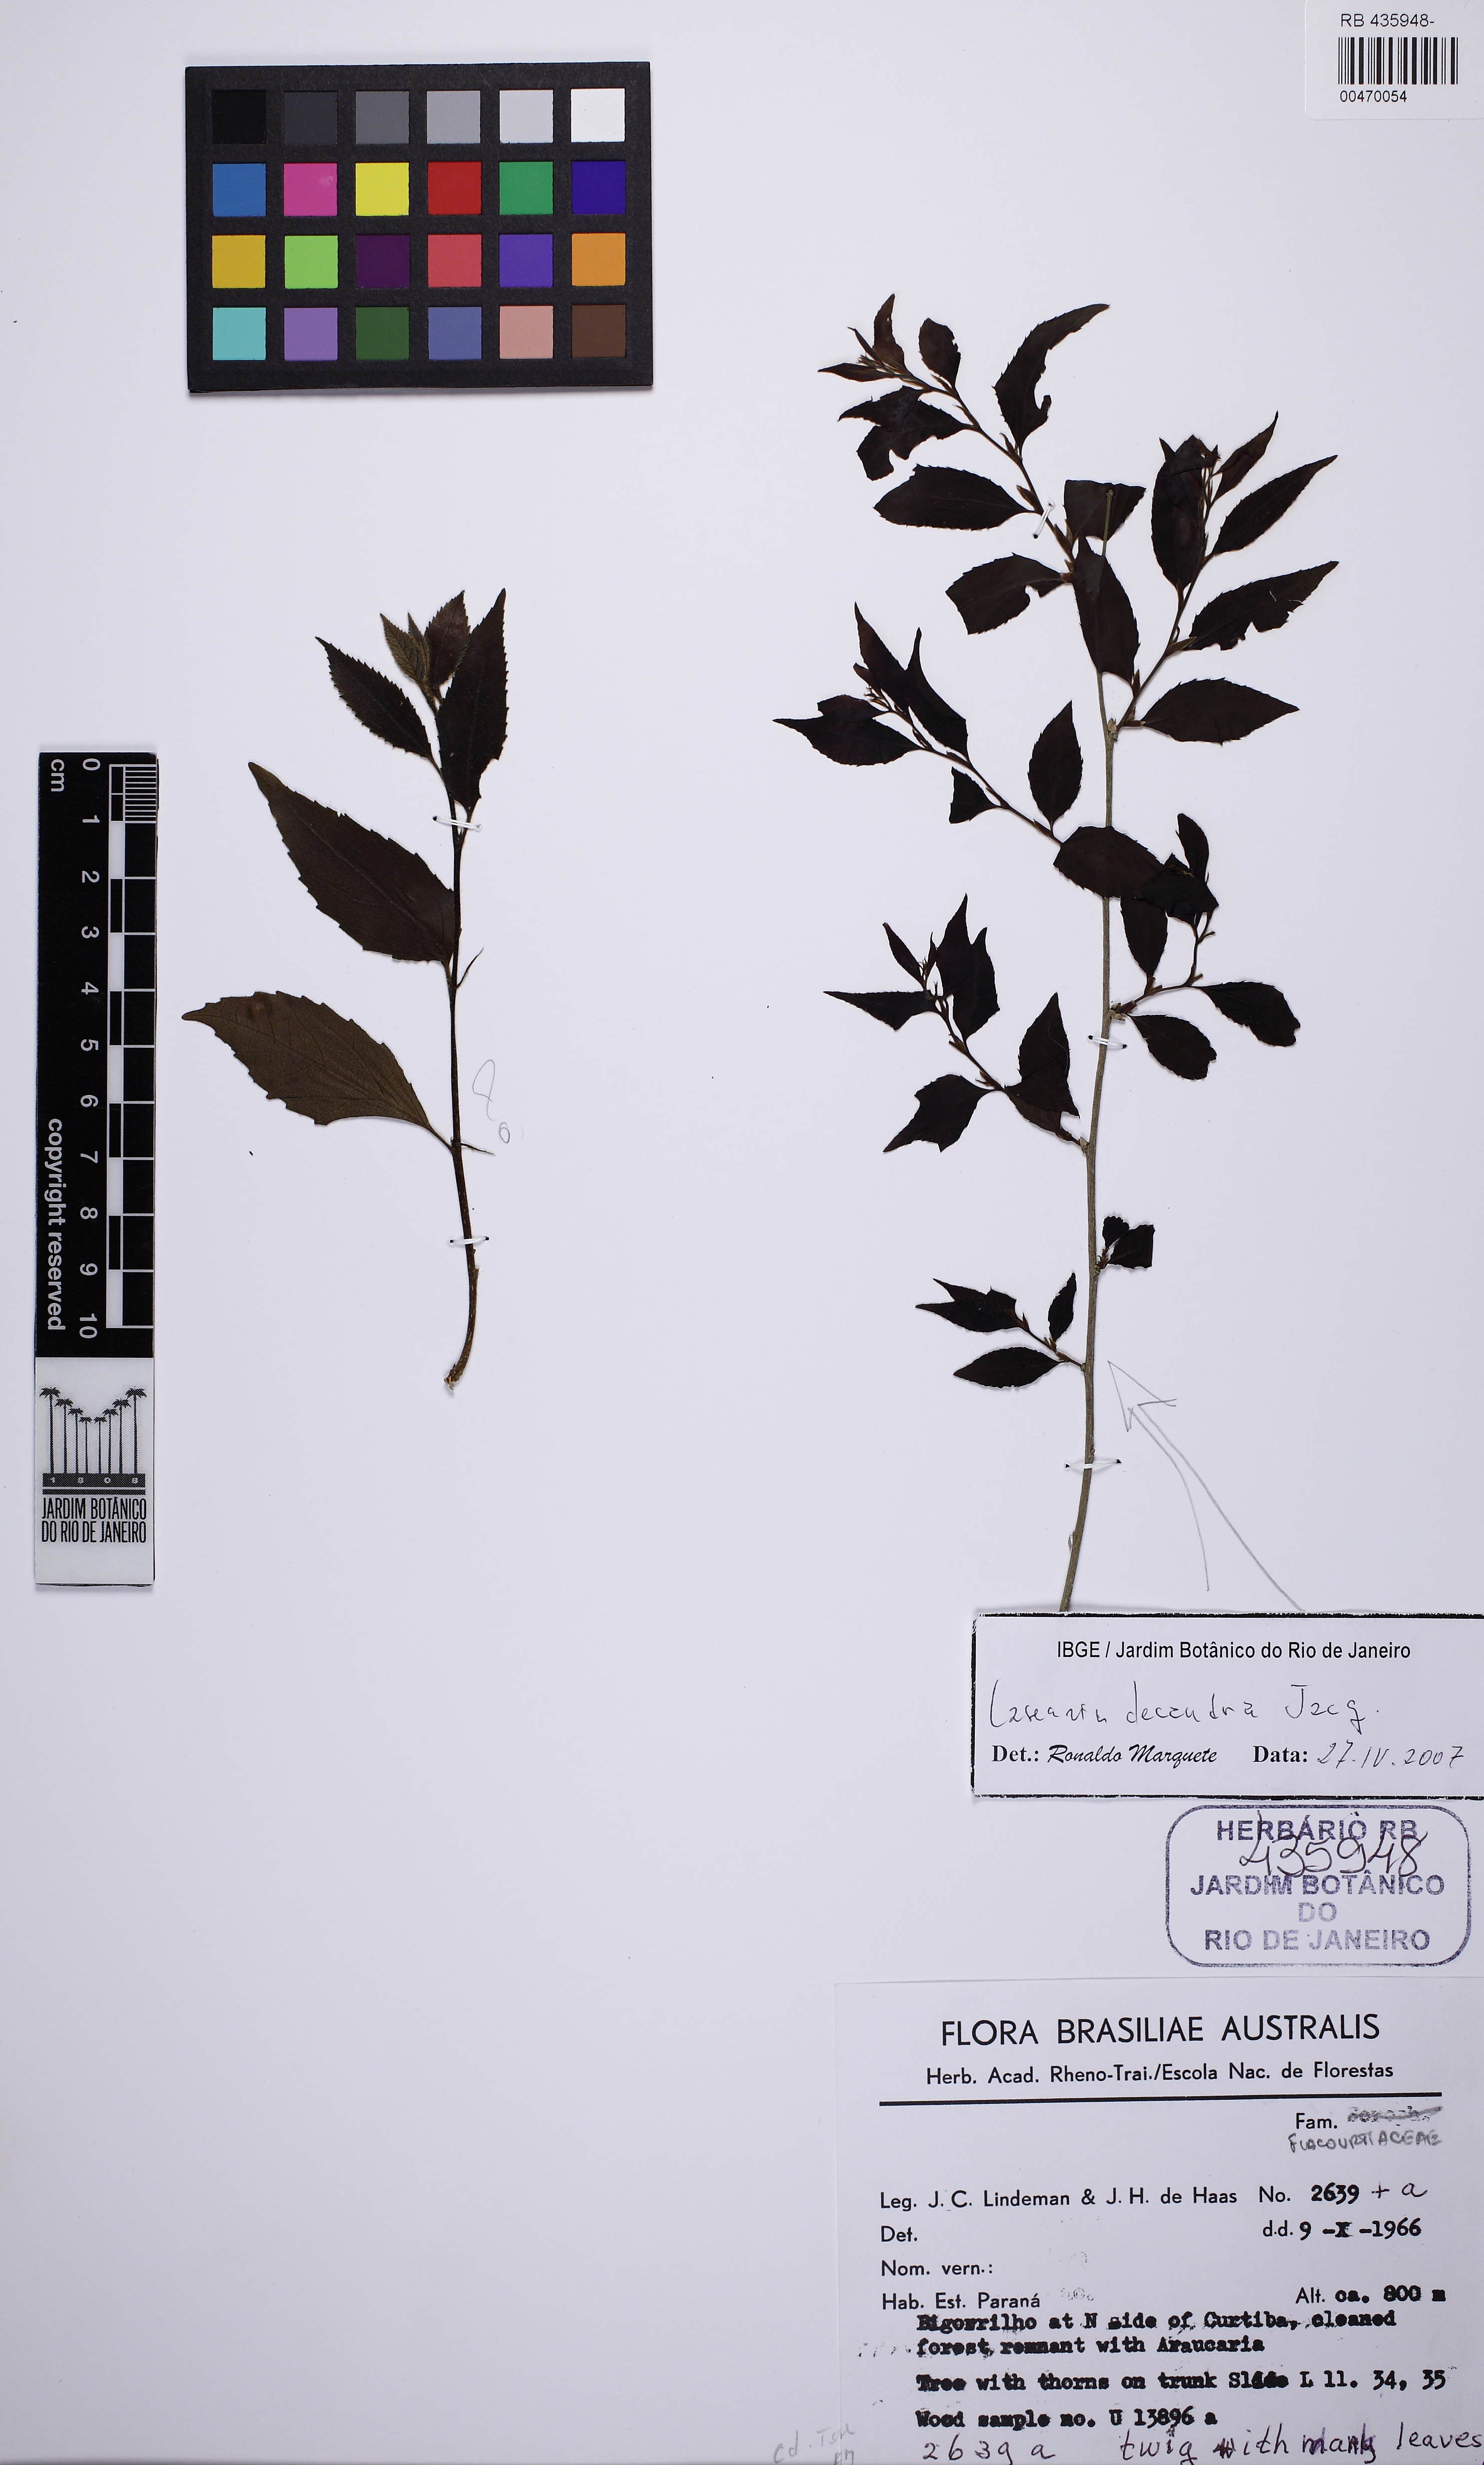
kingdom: Plantae
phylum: Tracheophyta
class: Magnoliopsida
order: Malpighiales
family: Salicaceae
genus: Casearia
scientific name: Casearia decandra
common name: Crack open
